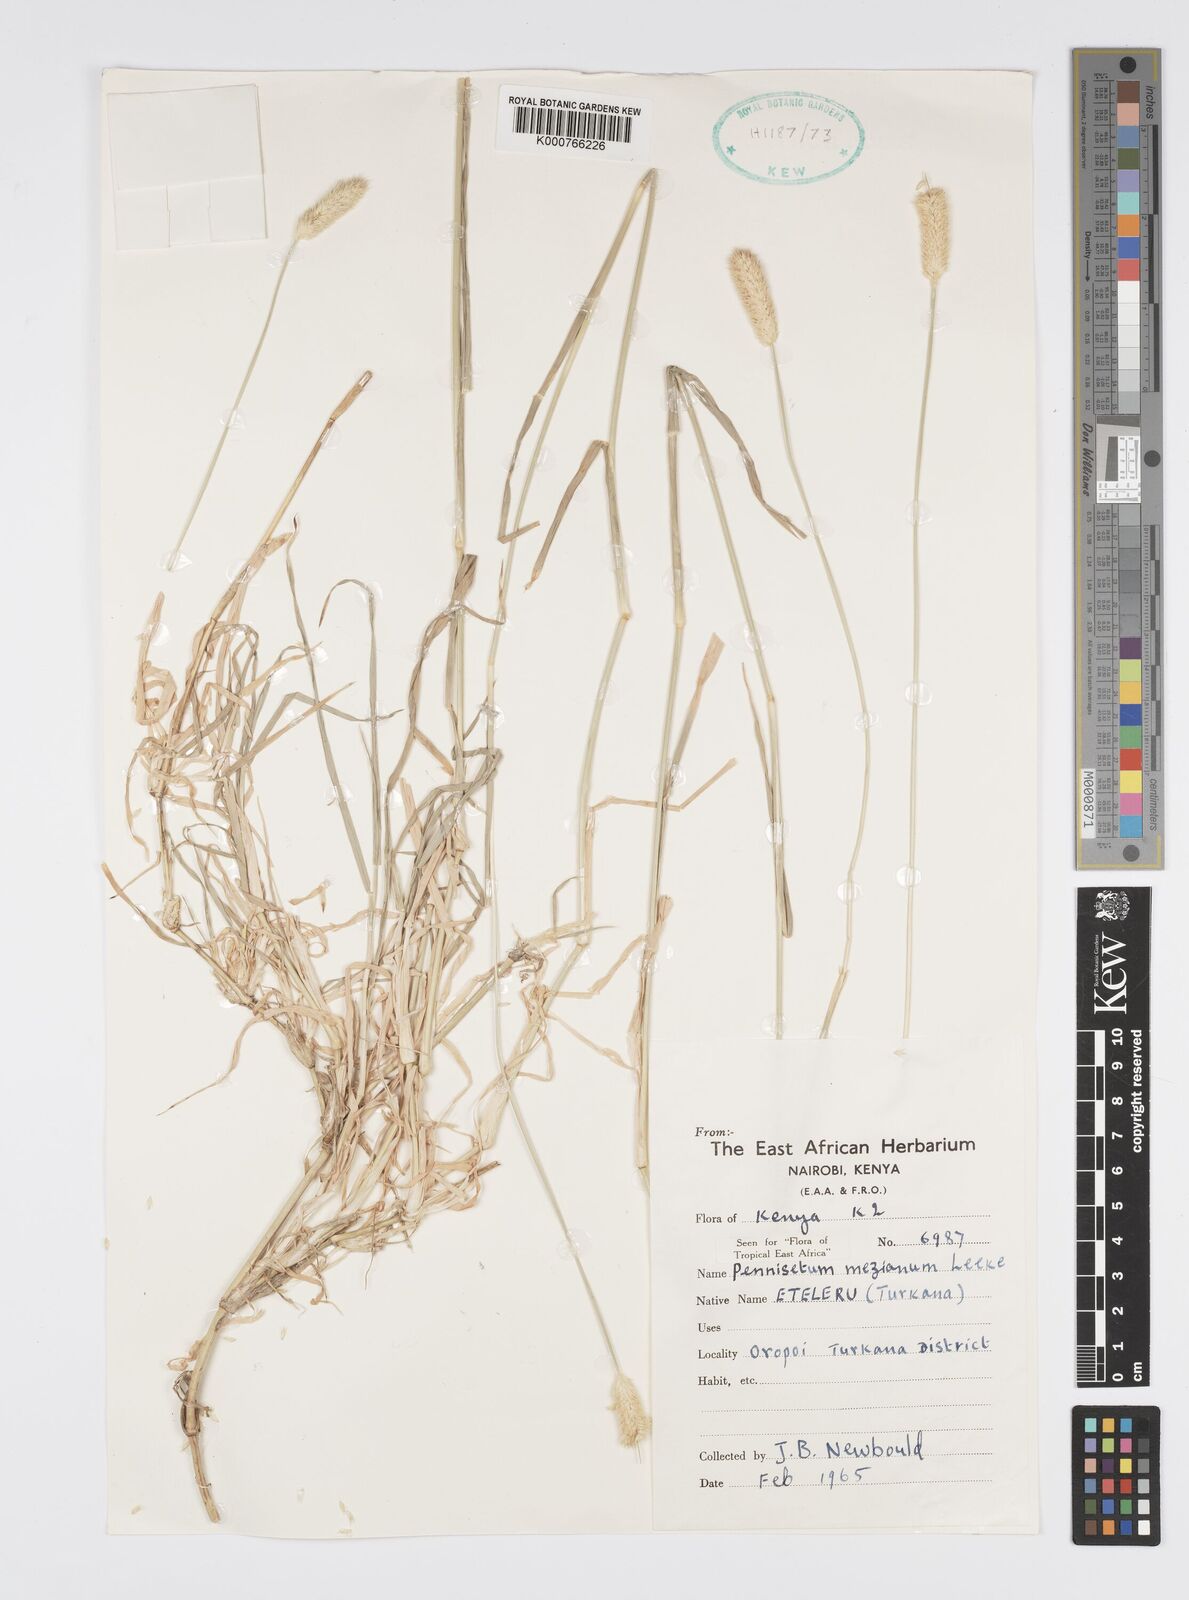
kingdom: Plantae
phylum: Tracheophyta
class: Liliopsida
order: Poales
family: Poaceae
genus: Cenchrus
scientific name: Cenchrus mezianus
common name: Bamboo grass
